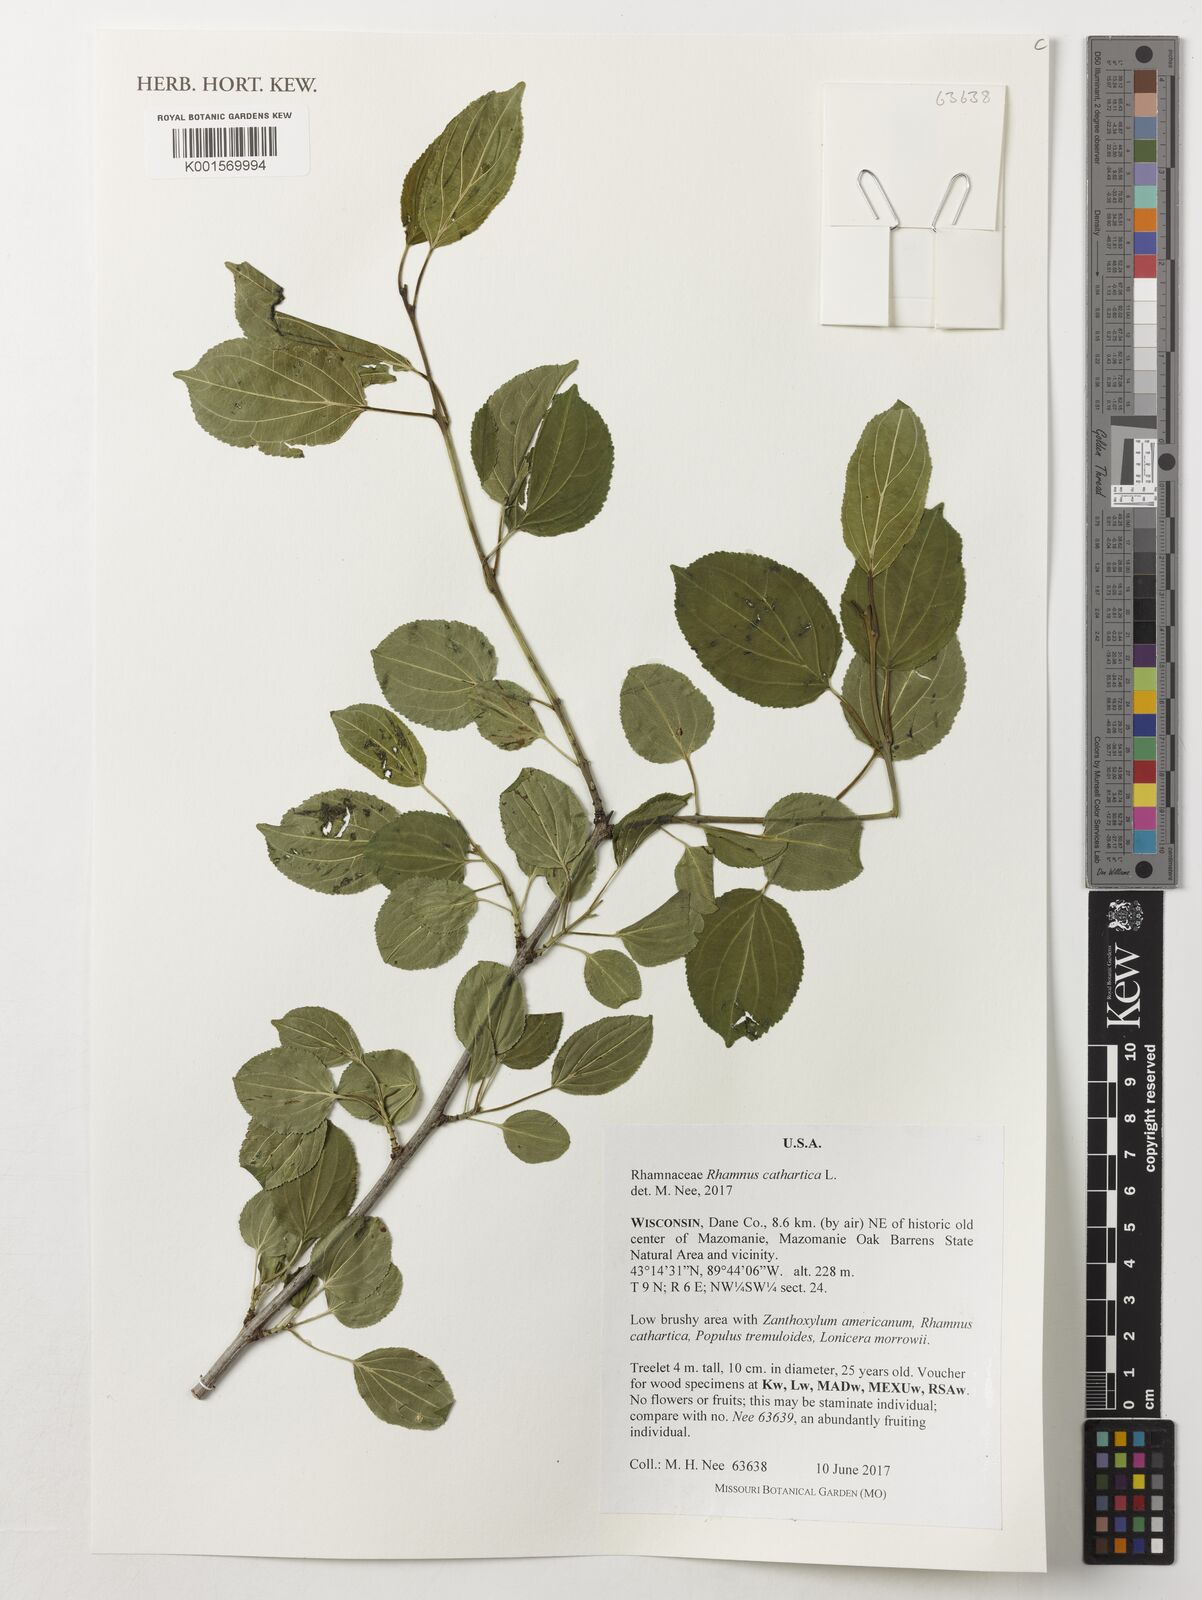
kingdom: Plantae
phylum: Tracheophyta
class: Magnoliopsida
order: Rosales
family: Rhamnaceae
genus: Rhamnus
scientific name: Rhamnus cathartica
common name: Common buckthorn
